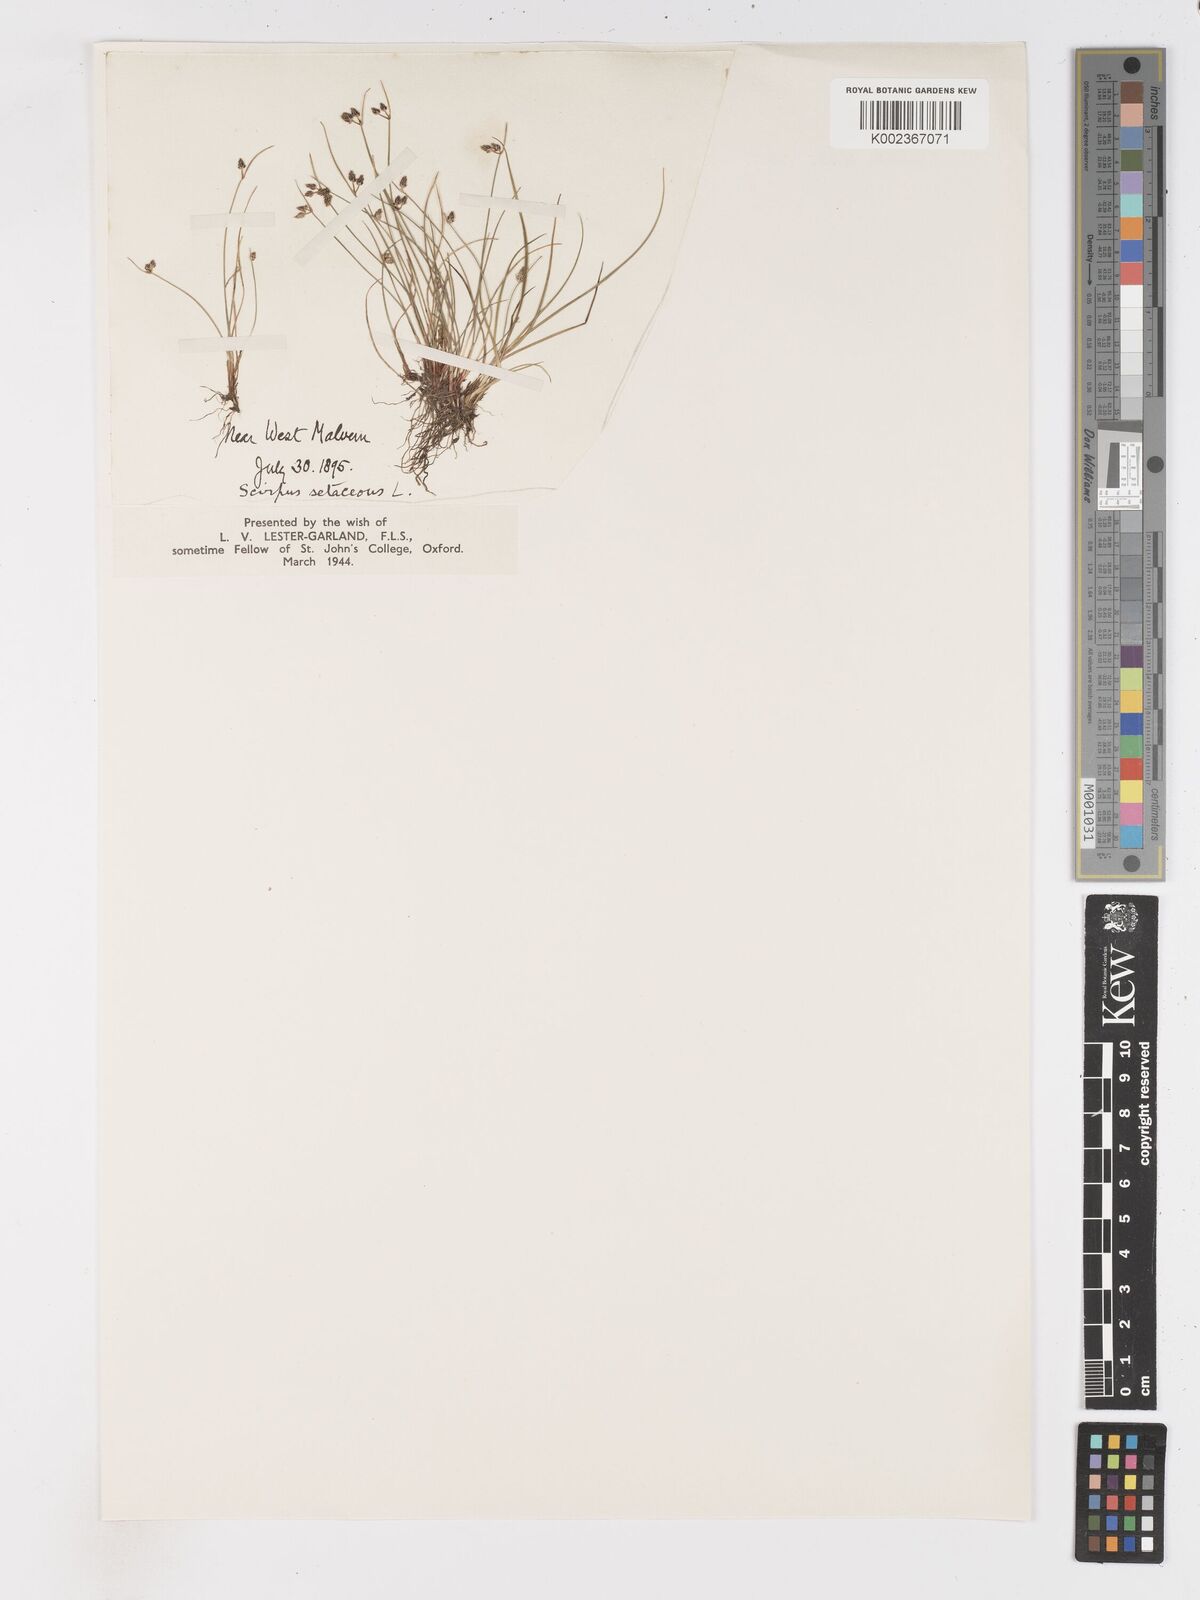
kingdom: Plantae
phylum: Tracheophyta
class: Liliopsida
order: Poales
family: Cyperaceae
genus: Isolepis
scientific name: Isolepis setacea
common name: Bristle club-rush
